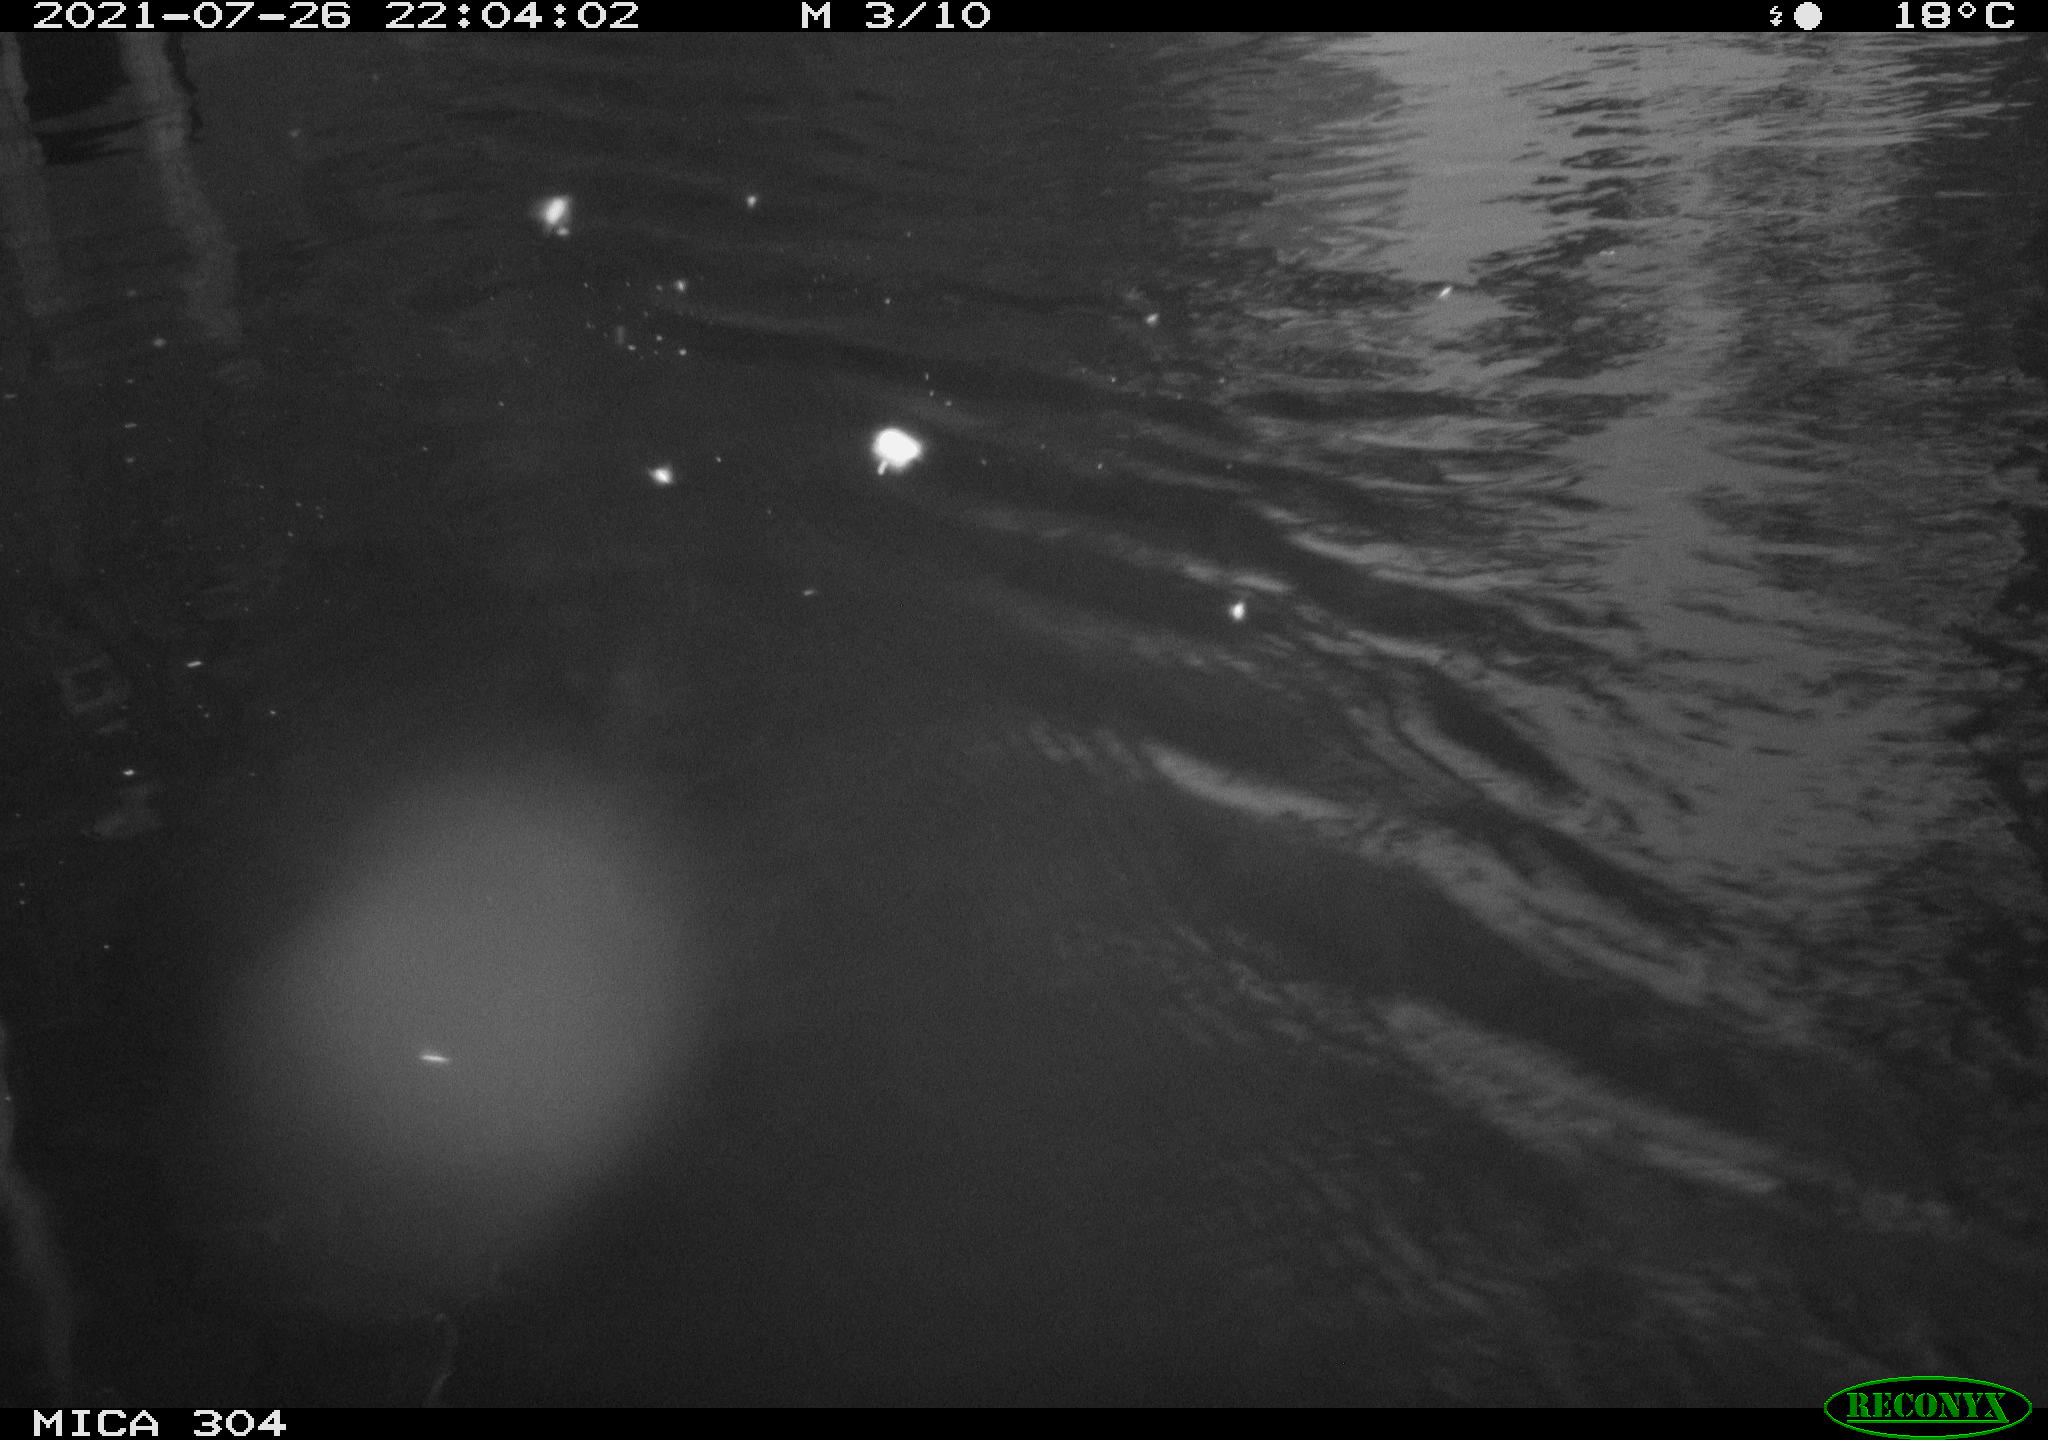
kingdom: Animalia
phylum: Chordata
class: Aves
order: Anseriformes
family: Anatidae
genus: Anas
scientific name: Anas platyrhynchos
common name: Mallard
